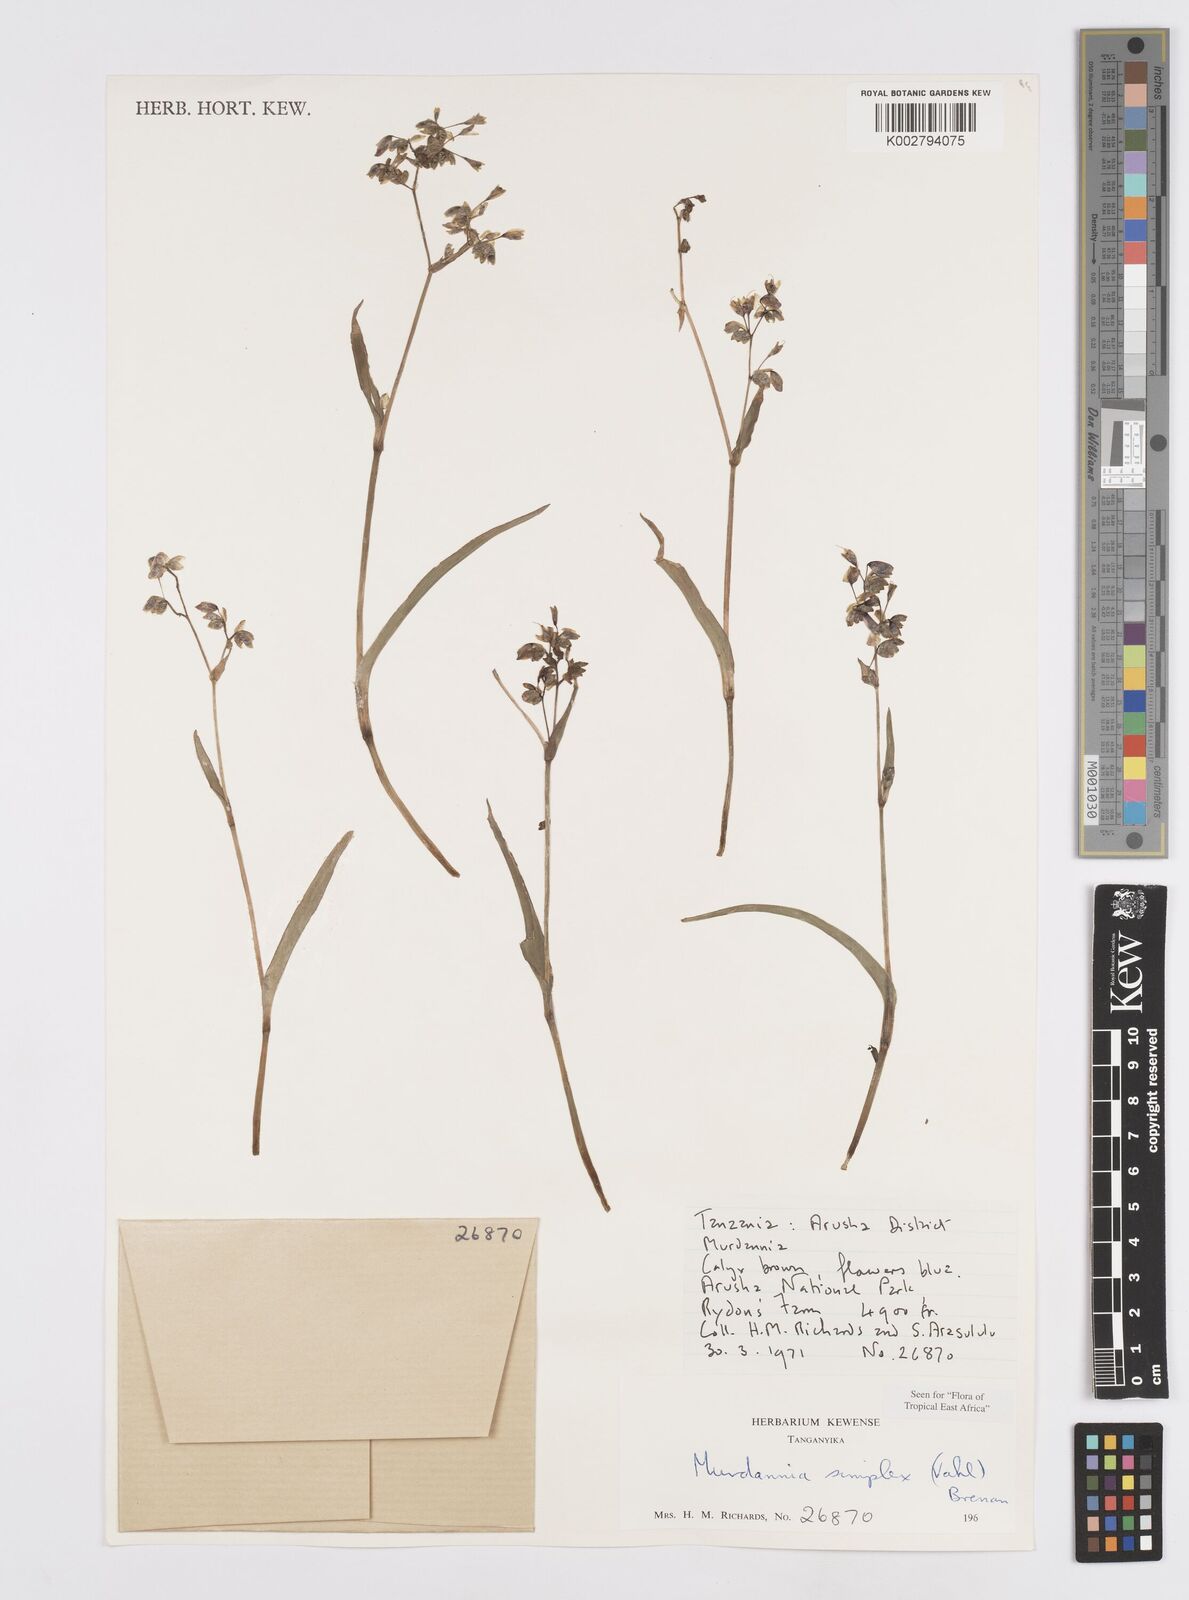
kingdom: Plantae
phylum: Tracheophyta
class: Liliopsida
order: Commelinales
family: Commelinaceae
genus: Murdannia
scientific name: Murdannia simplex
